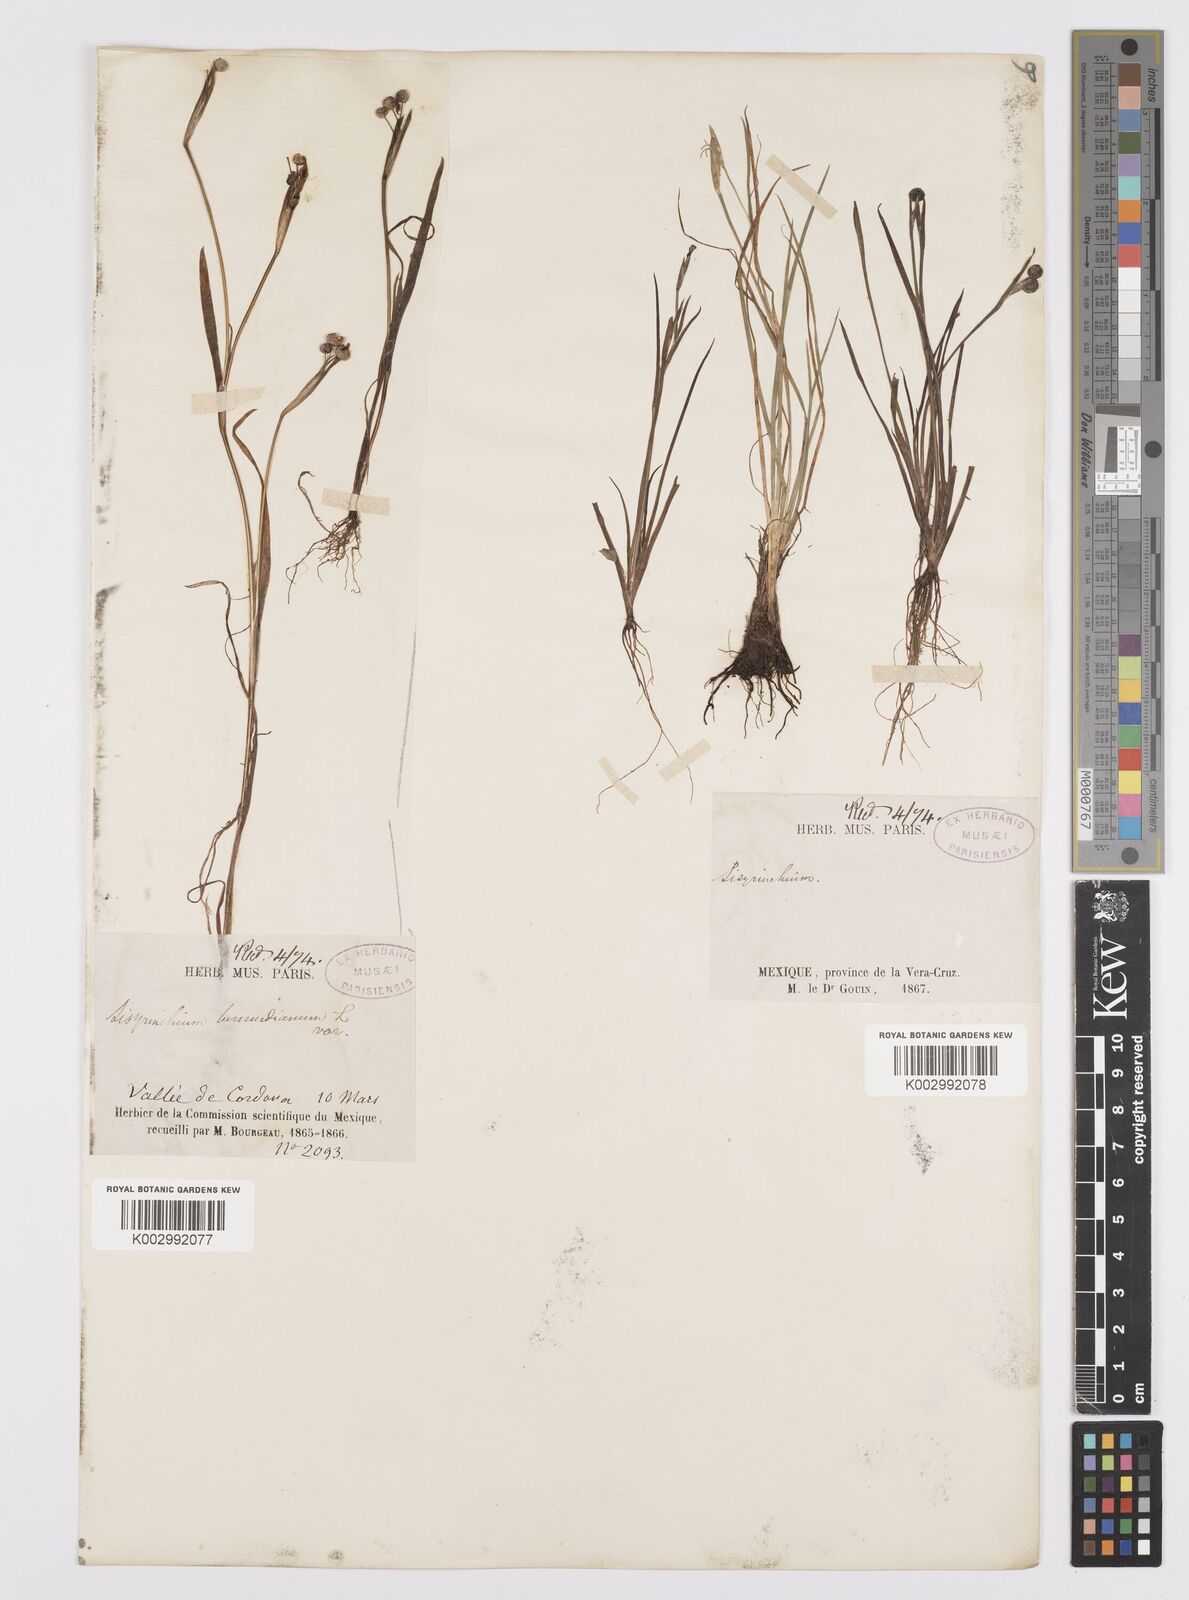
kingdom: Plantae
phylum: Tracheophyta
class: Liliopsida
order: Asparagales
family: Iridaceae
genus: Sisyrinchium
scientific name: Sisyrinchium bermudiana
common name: Blue-eyed-grass
